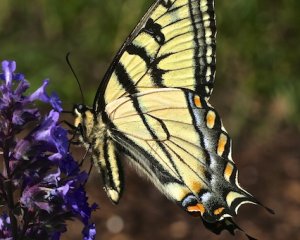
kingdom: Animalia
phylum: Arthropoda
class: Insecta
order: Lepidoptera
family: Papilionidae
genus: Pterourus
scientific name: Pterourus canadensis
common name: Canadian Tiger Swallowtail
